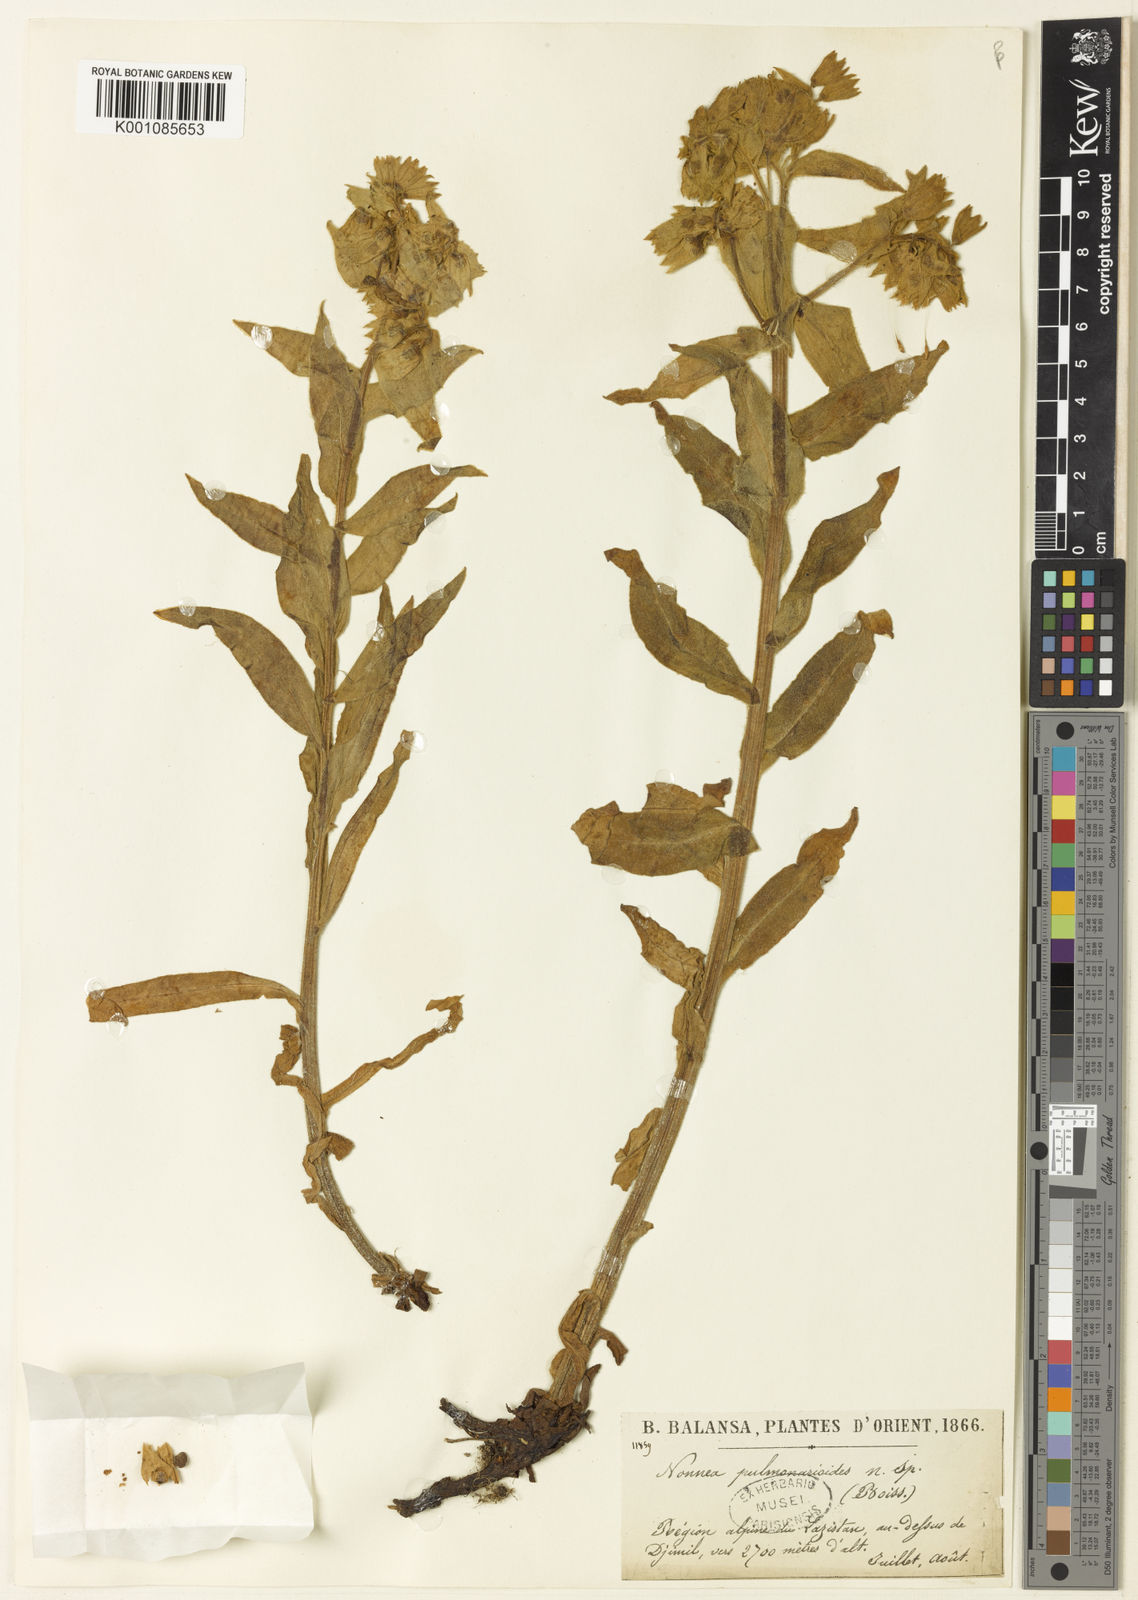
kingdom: Plantae
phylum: Tracheophyta
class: Magnoliopsida
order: Boraginales
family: Boraginaceae
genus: Nonea
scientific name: Nonea pulmonarioides
